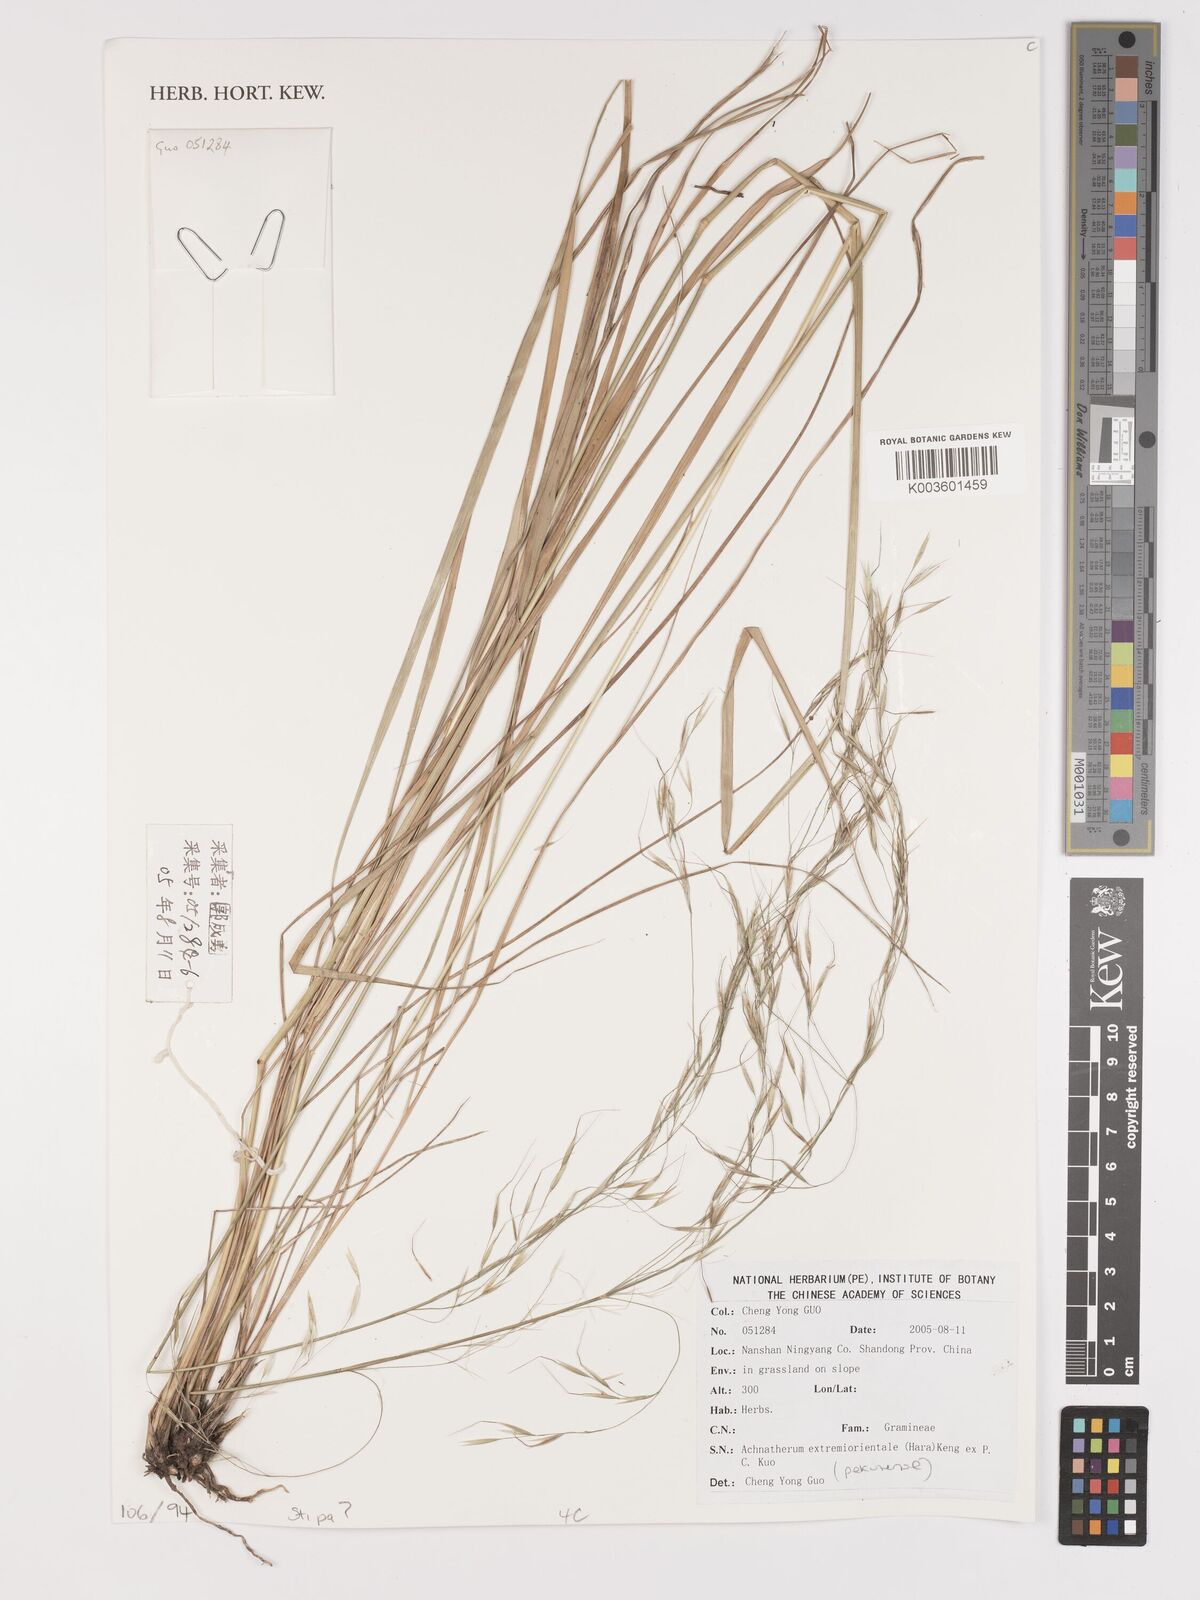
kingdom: Plantae
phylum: Tracheophyta
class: Liliopsida
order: Poales
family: Poaceae
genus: Achnatherum
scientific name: Achnatherum pekinense
